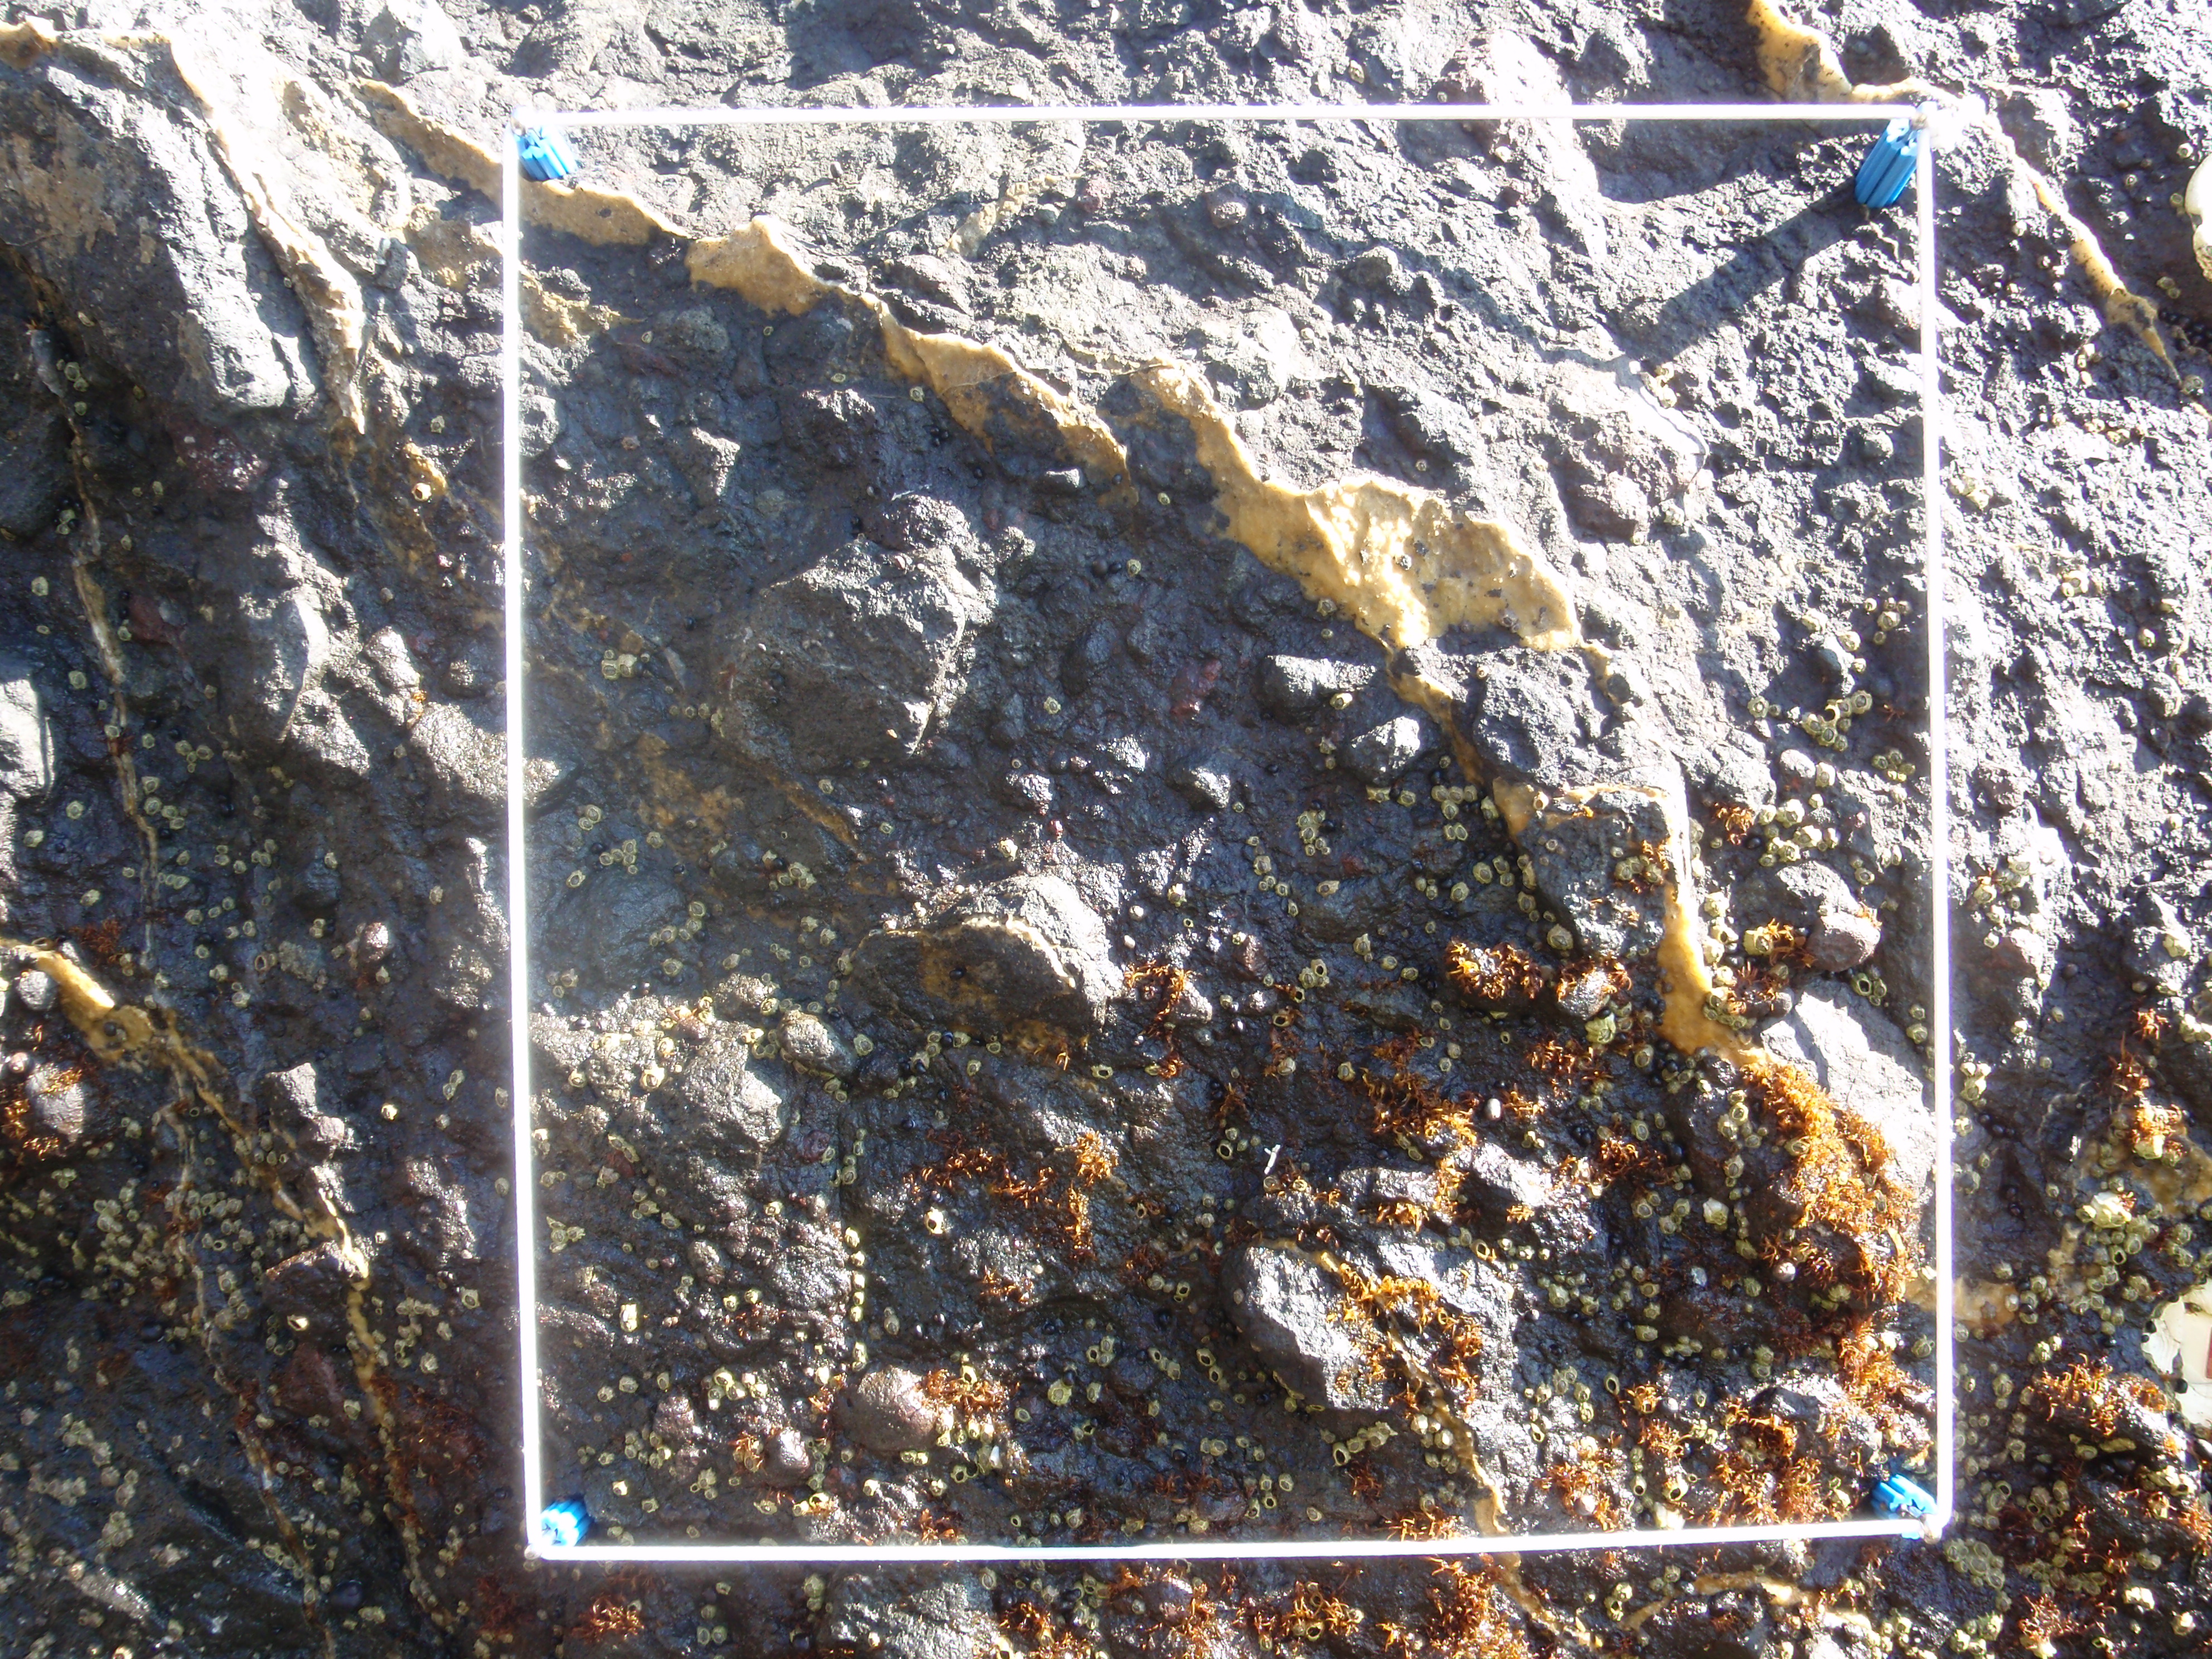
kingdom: Plantae
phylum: Rhodophyta
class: Florideophyceae
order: Gigartinales
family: Endocladiaceae
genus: Gloiopeltis
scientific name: Gloiopeltis furcata
